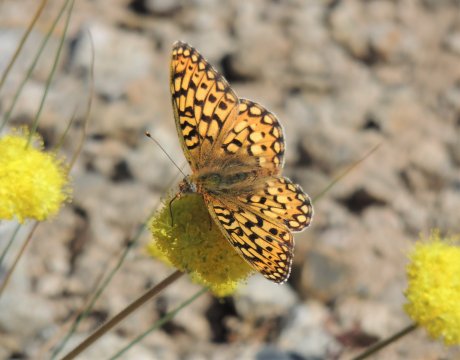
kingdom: Animalia
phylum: Arthropoda
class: Insecta
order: Lepidoptera
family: Nymphalidae
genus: Speyeria
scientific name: Speyeria callippe
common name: Callippe Fritillary
